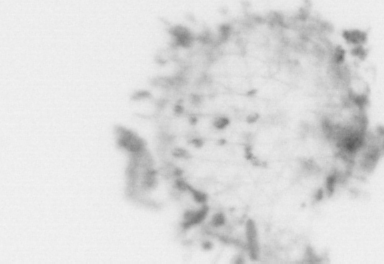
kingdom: Animalia
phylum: Chordata
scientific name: Chordata
